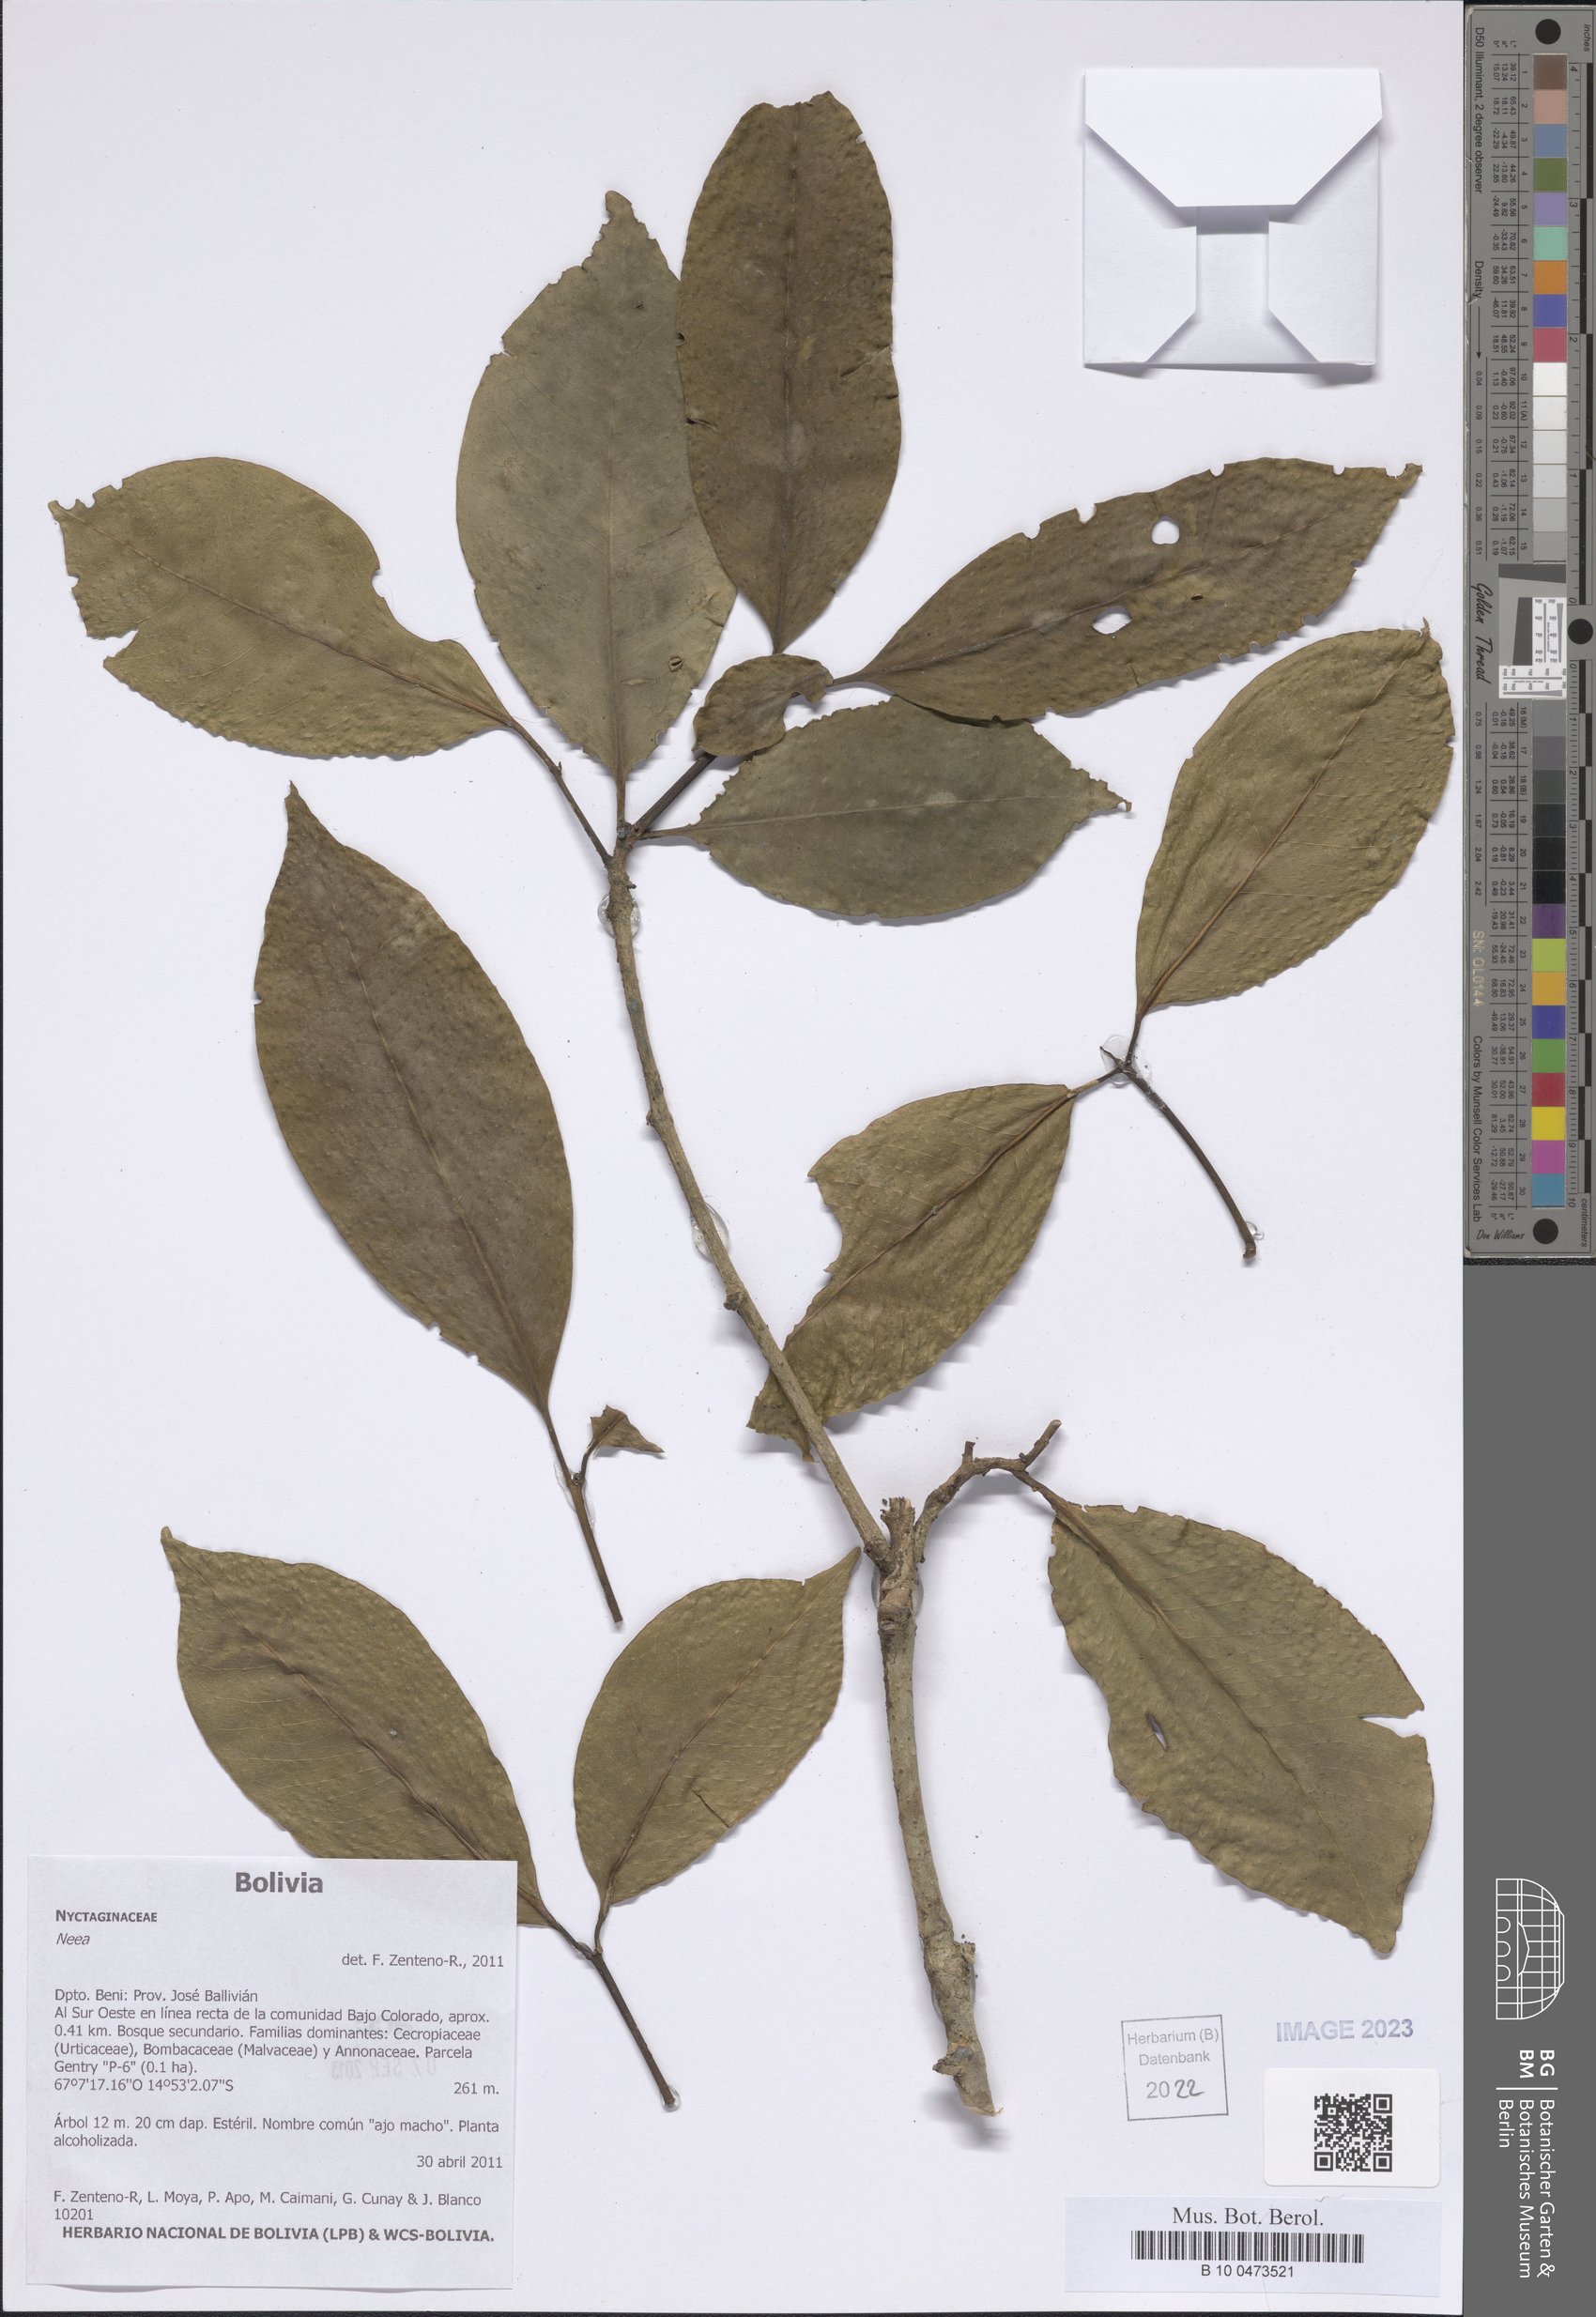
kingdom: Plantae
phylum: Tracheophyta
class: Magnoliopsida
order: Caryophyllales
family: Nyctaginaceae
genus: Neea
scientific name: Neea
